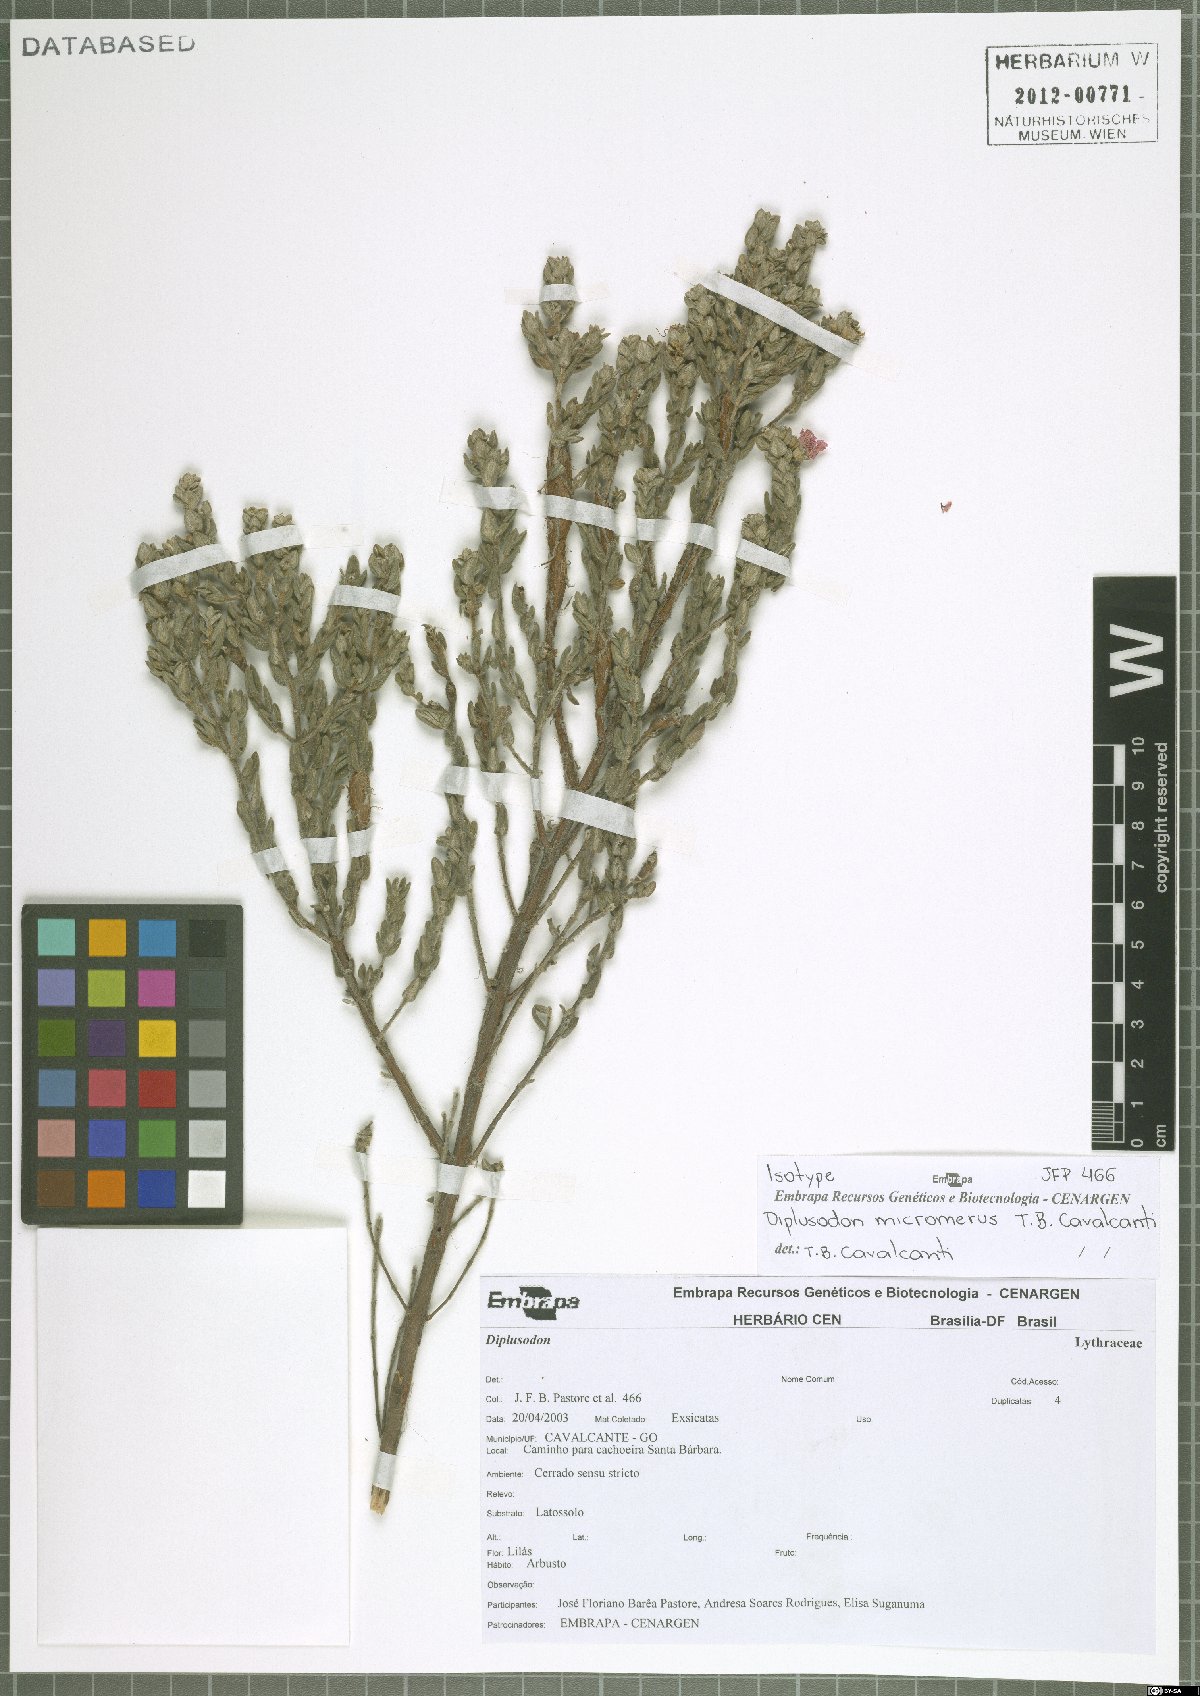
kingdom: Plantae
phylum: Tracheophyta
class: Magnoliopsida
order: Myrtales
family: Lythraceae
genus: Diplusodon
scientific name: Diplusodon micromerus
